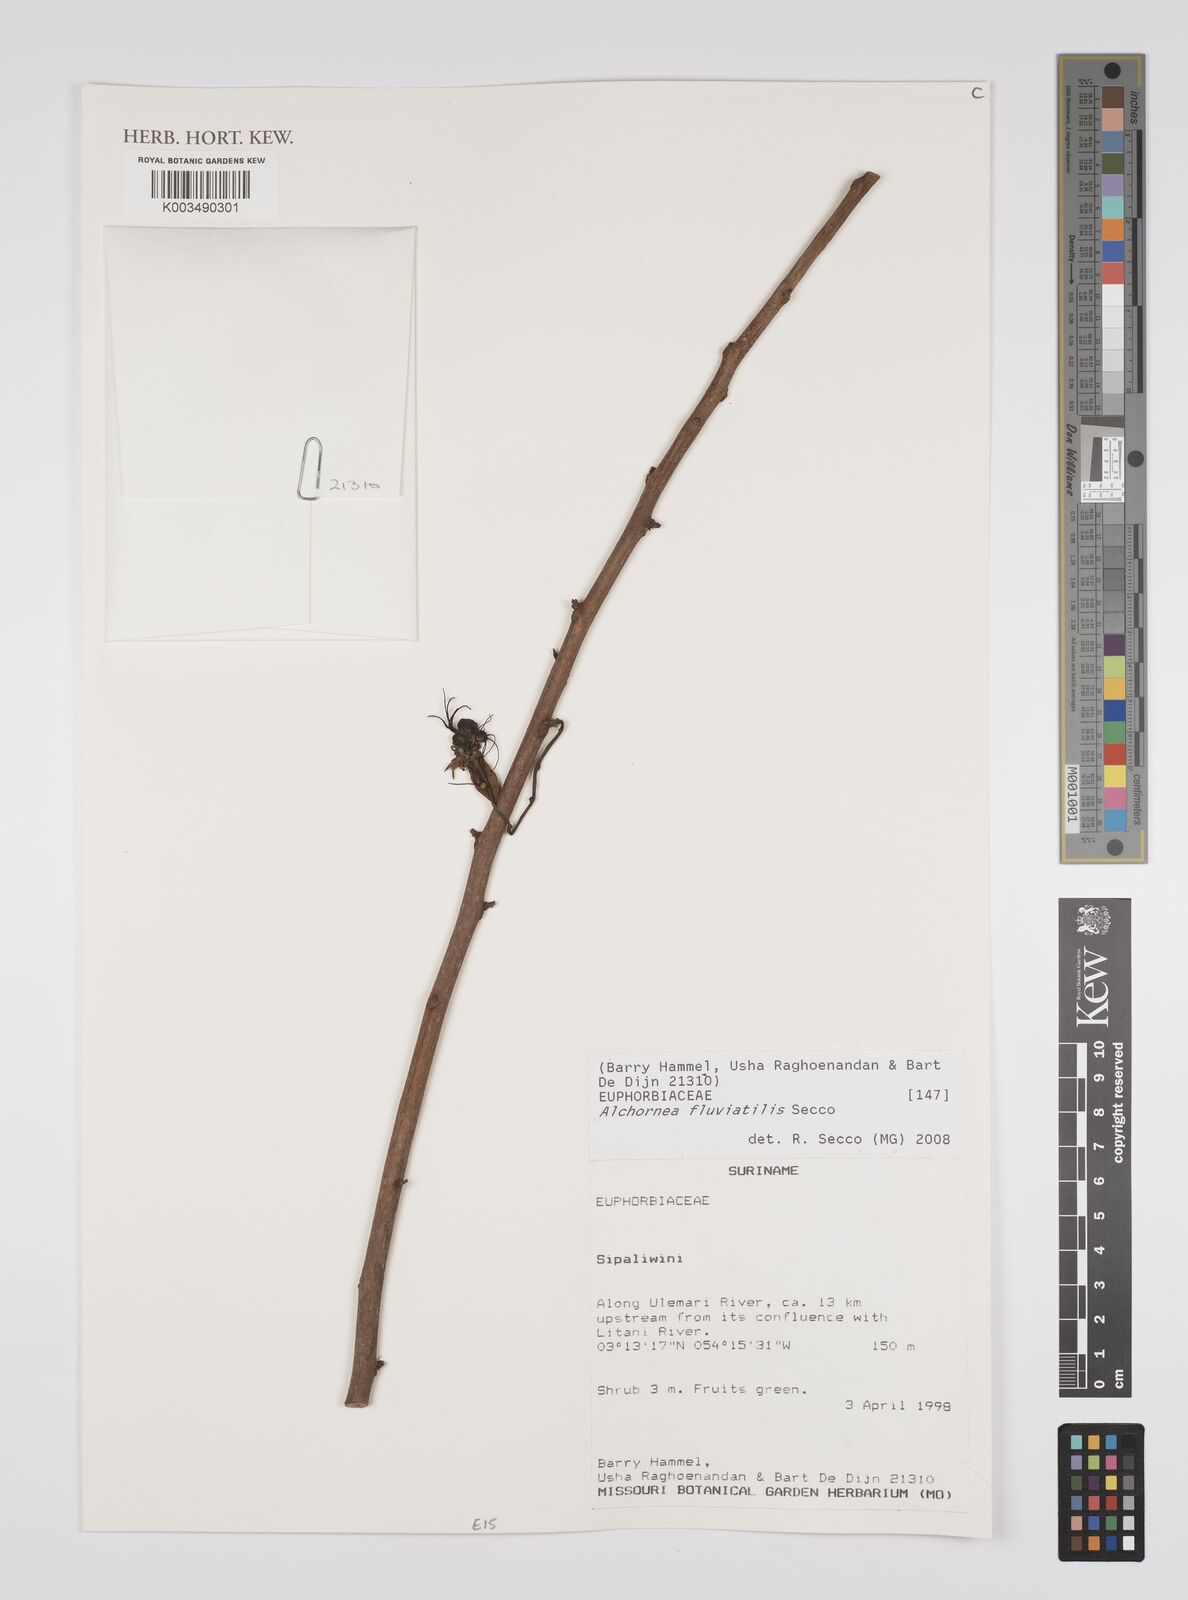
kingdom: Plantae
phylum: Tracheophyta
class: Magnoliopsida
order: Malpighiales
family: Euphorbiaceae
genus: Alchornea
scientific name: Alchornea fluviatilis
